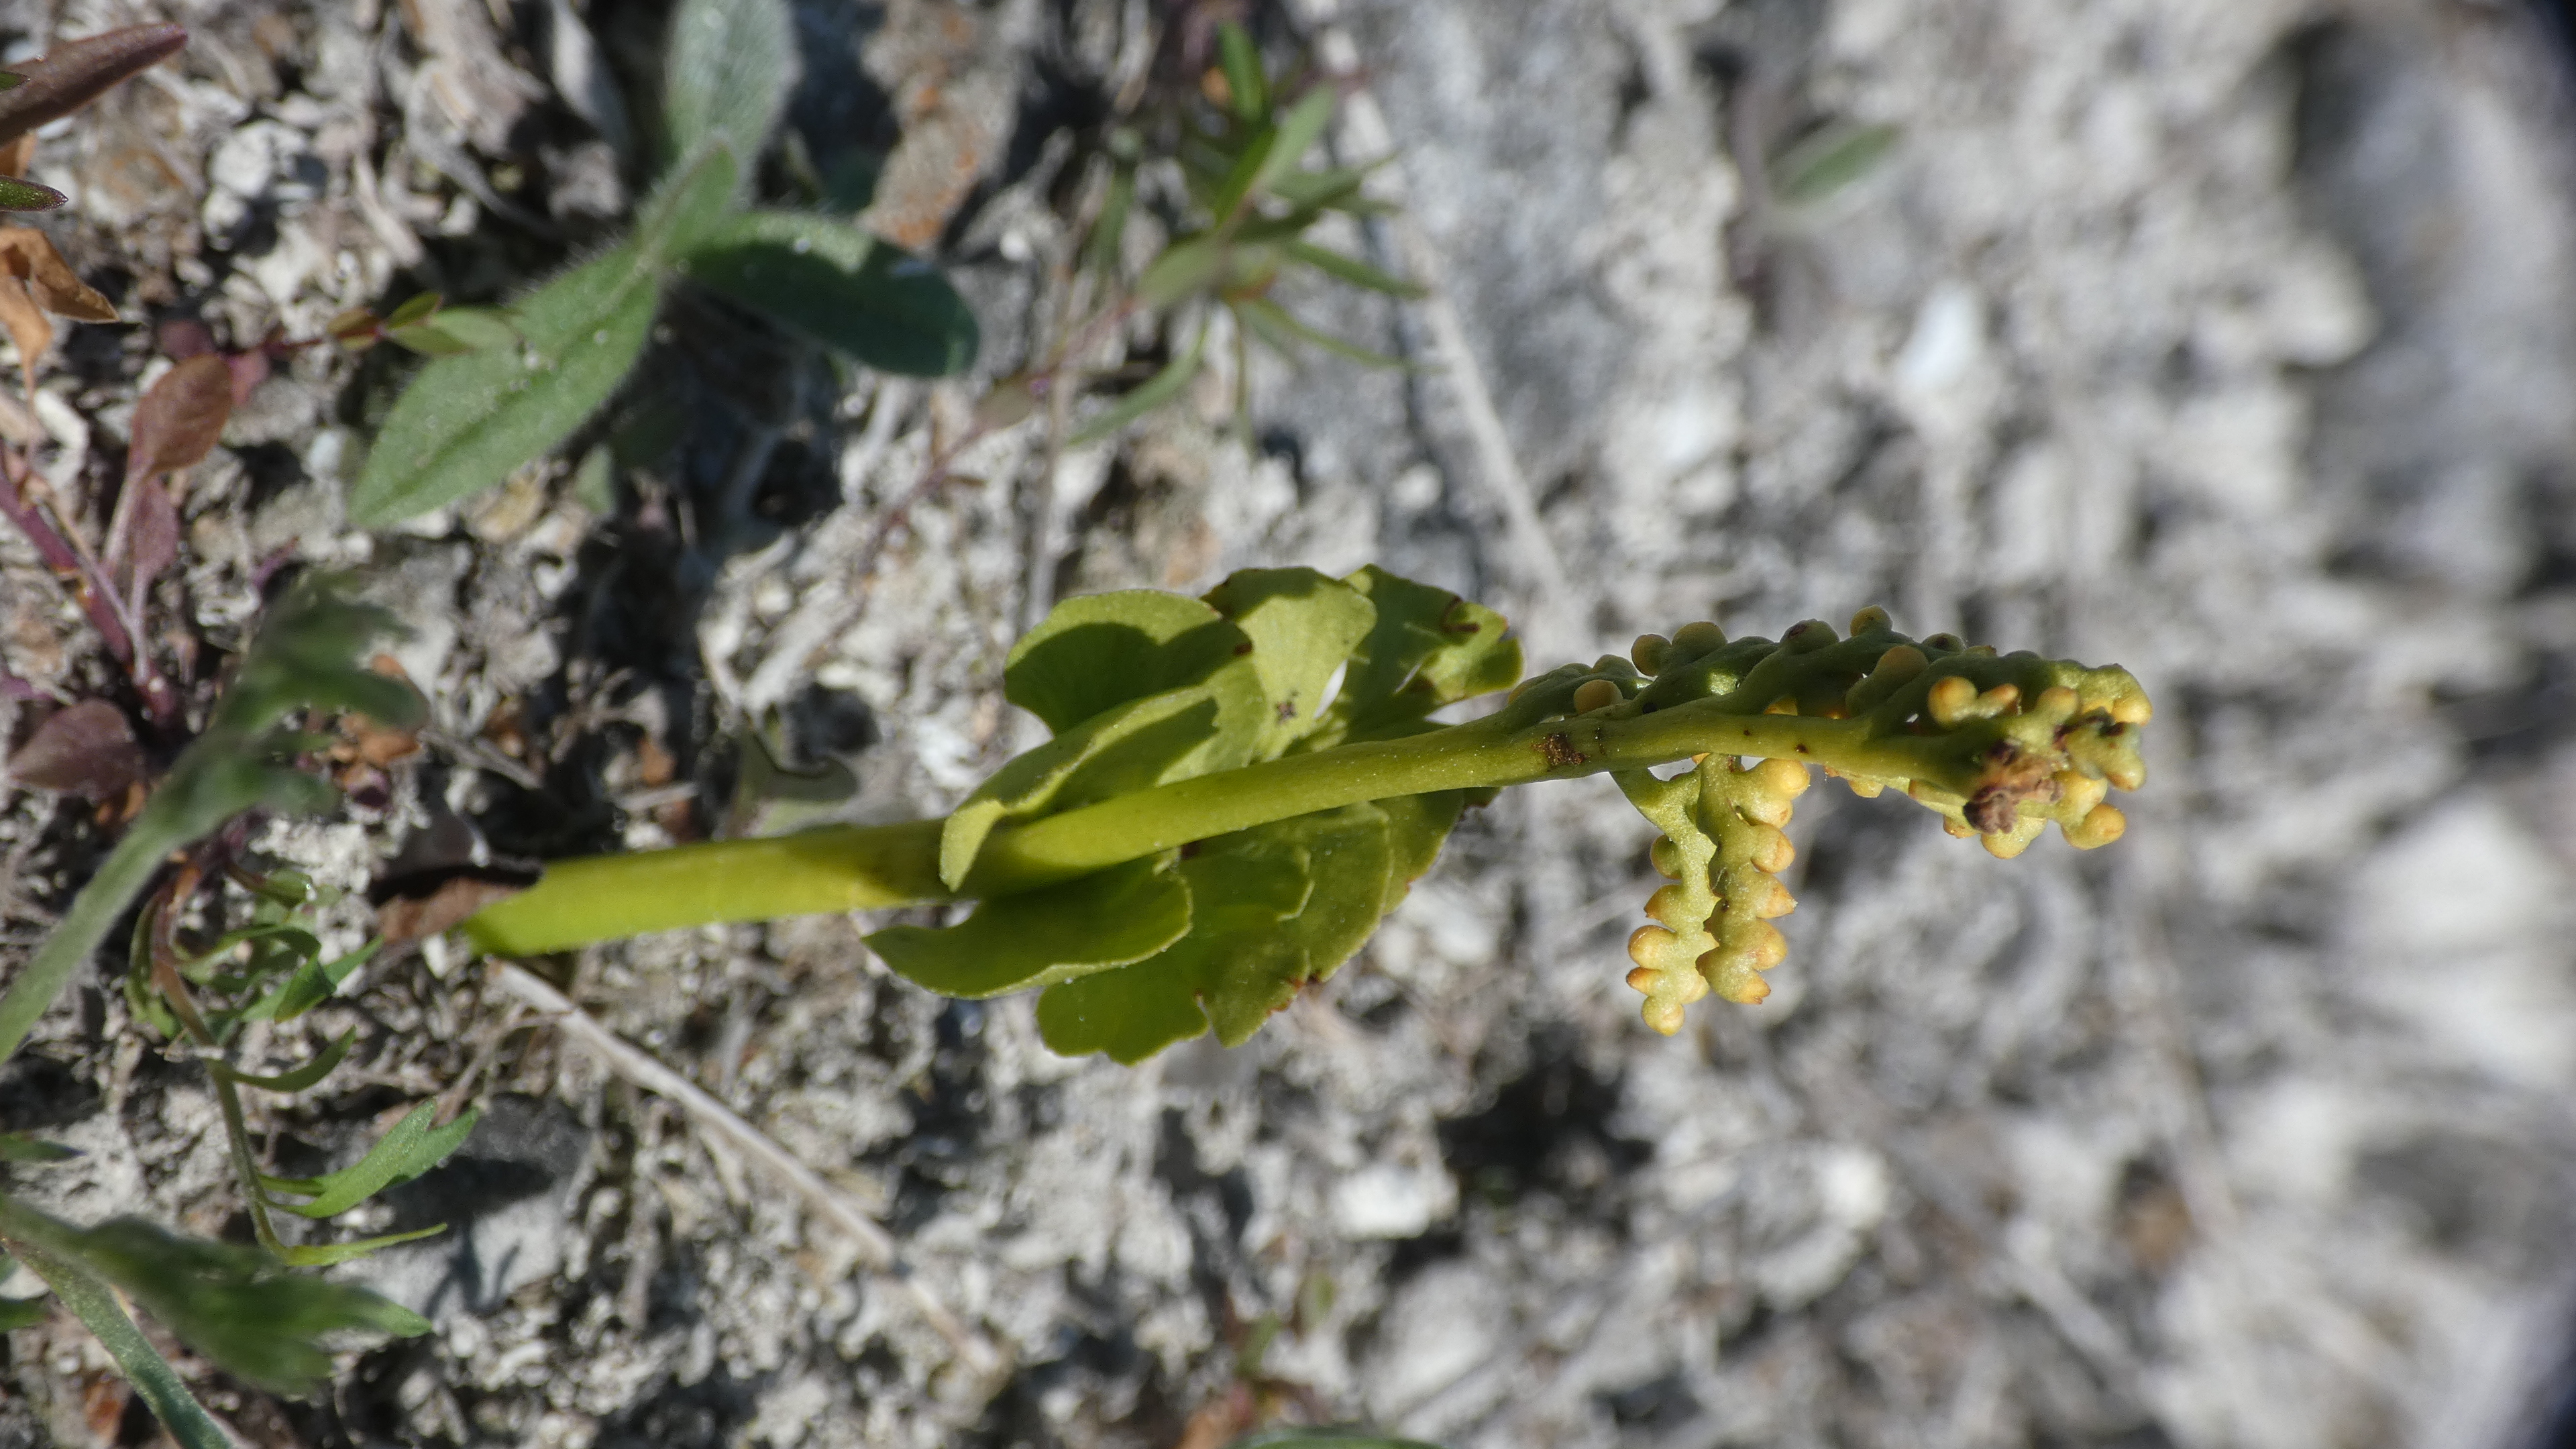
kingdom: Plantae
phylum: Tracheophyta
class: Polypodiopsida
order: Ophioglossales
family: Ophioglossaceae
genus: Botrychium
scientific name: Botrychium lunaria
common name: Almindelig månerude
